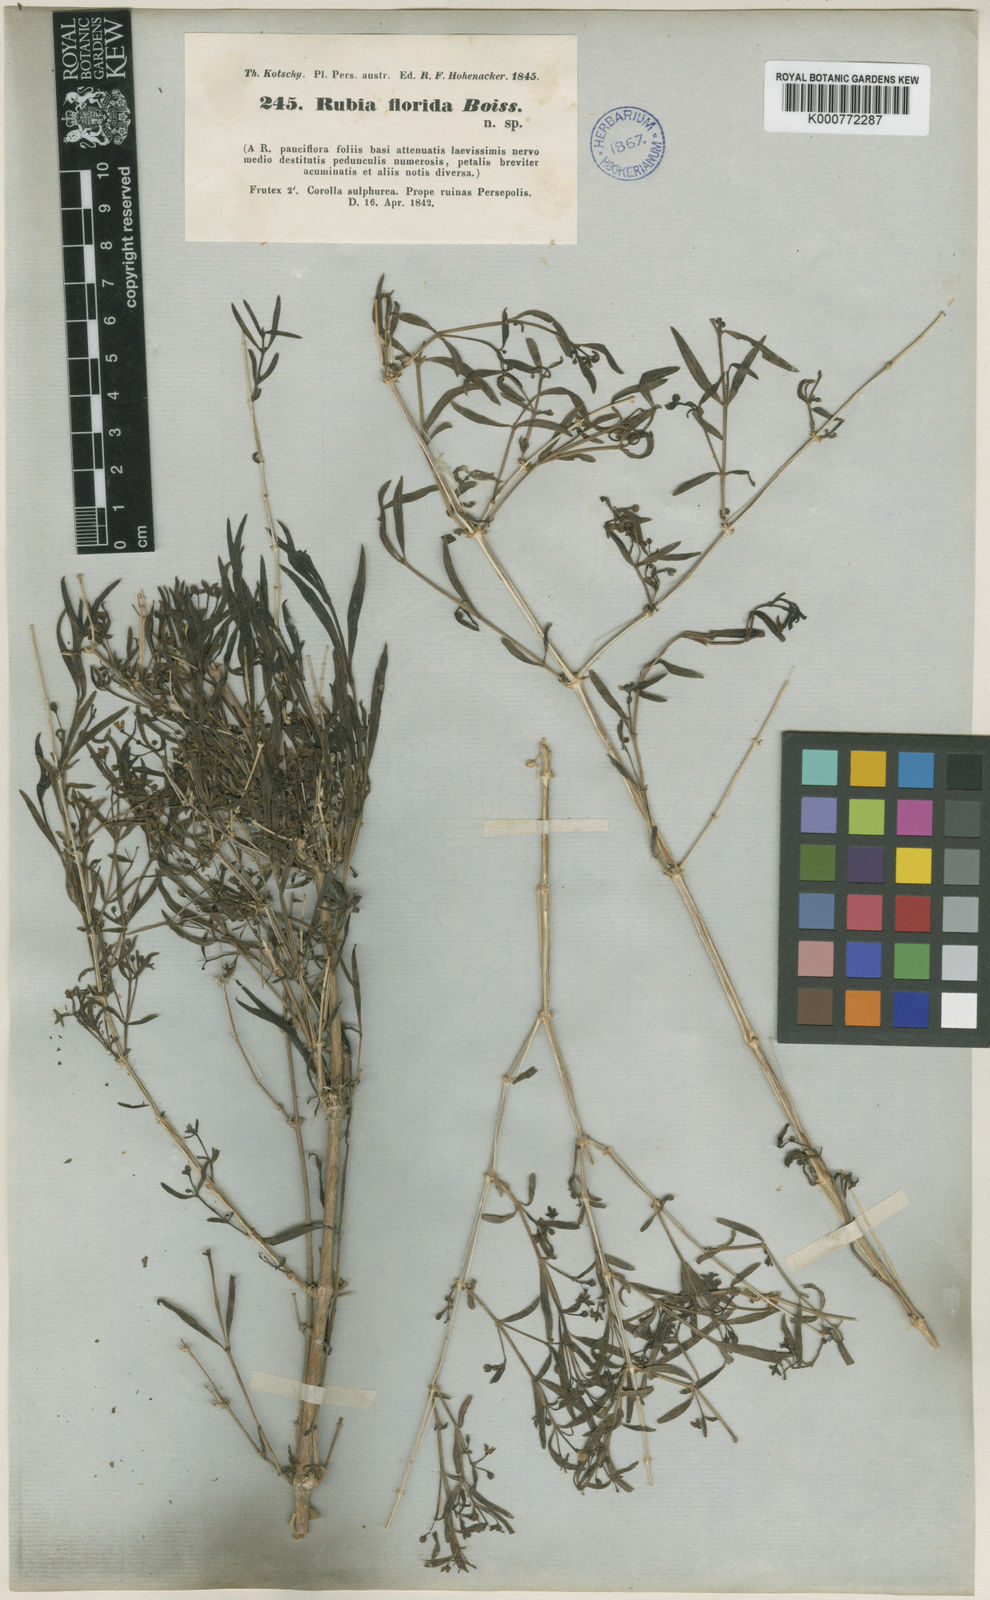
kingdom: Plantae
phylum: Tracheophyta
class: Magnoliopsida
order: Gentianales
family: Rubiaceae
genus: Rubia
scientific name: Rubia
